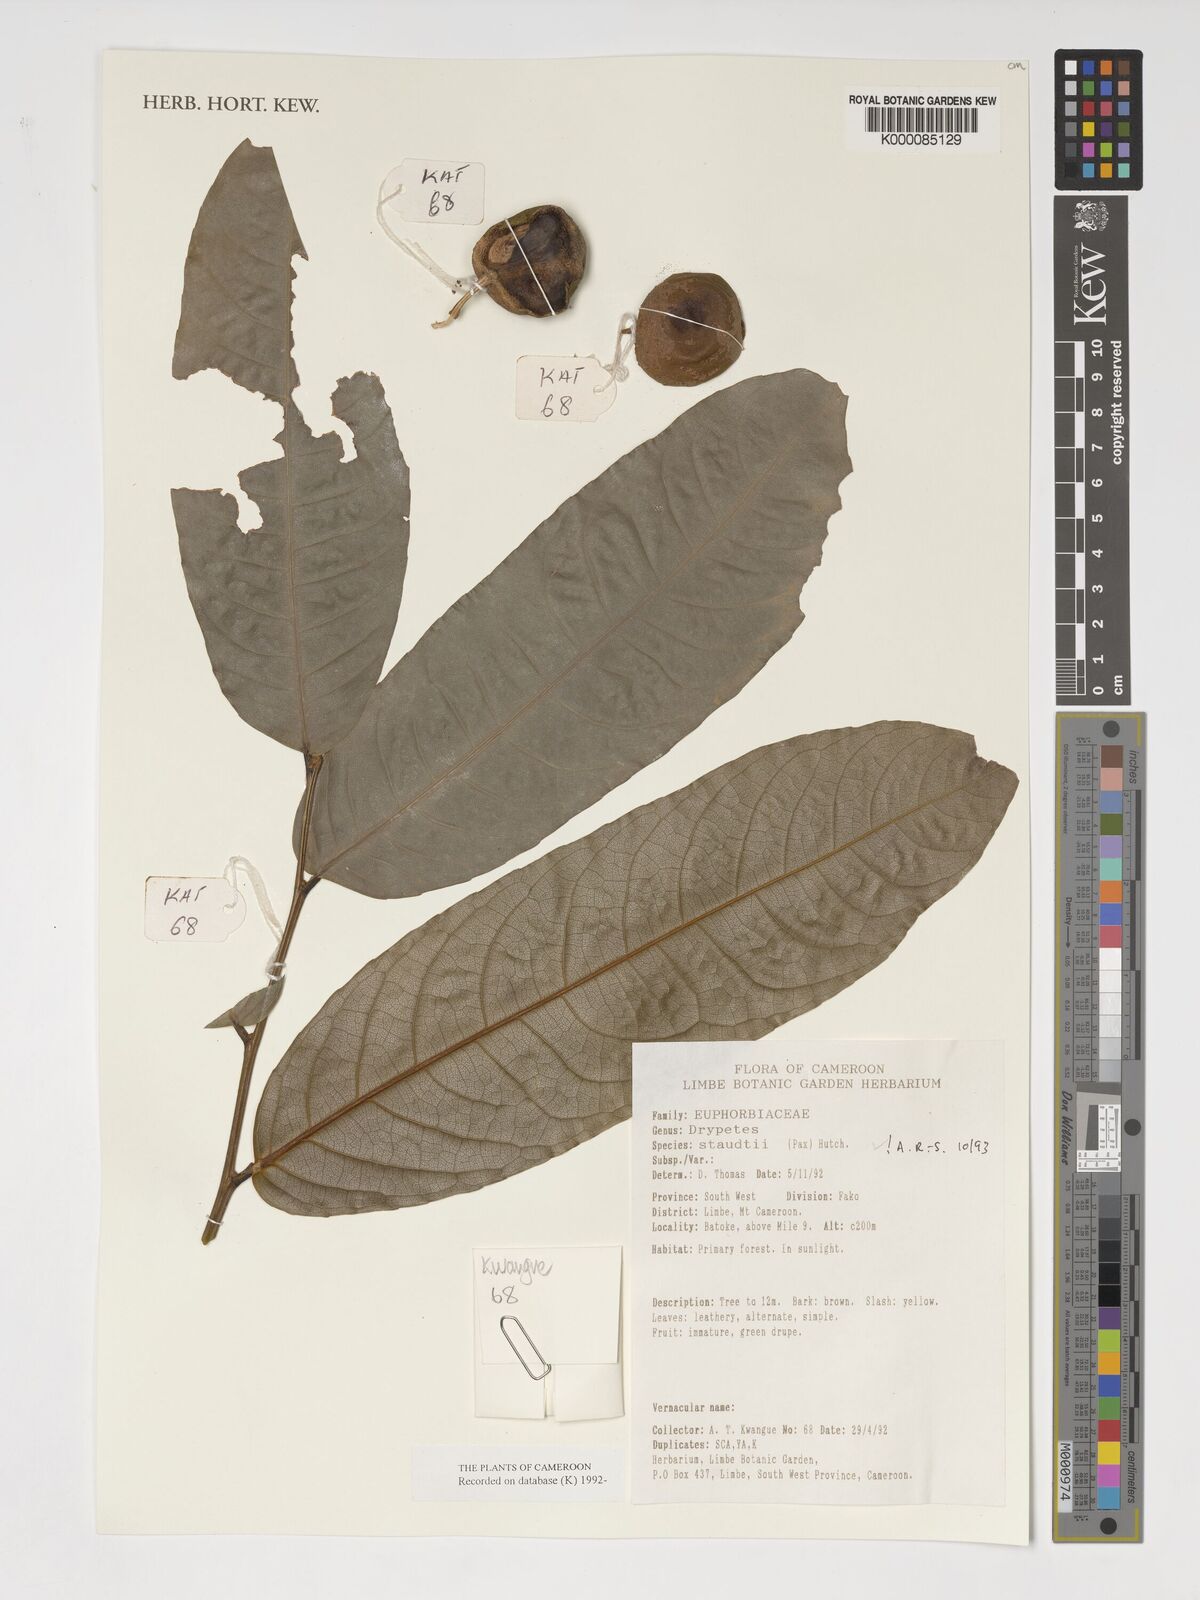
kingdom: Plantae
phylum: Tracheophyta
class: Magnoliopsida
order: Malpighiales
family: Putranjivaceae
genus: Drypetes
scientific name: Drypetes staudtii
